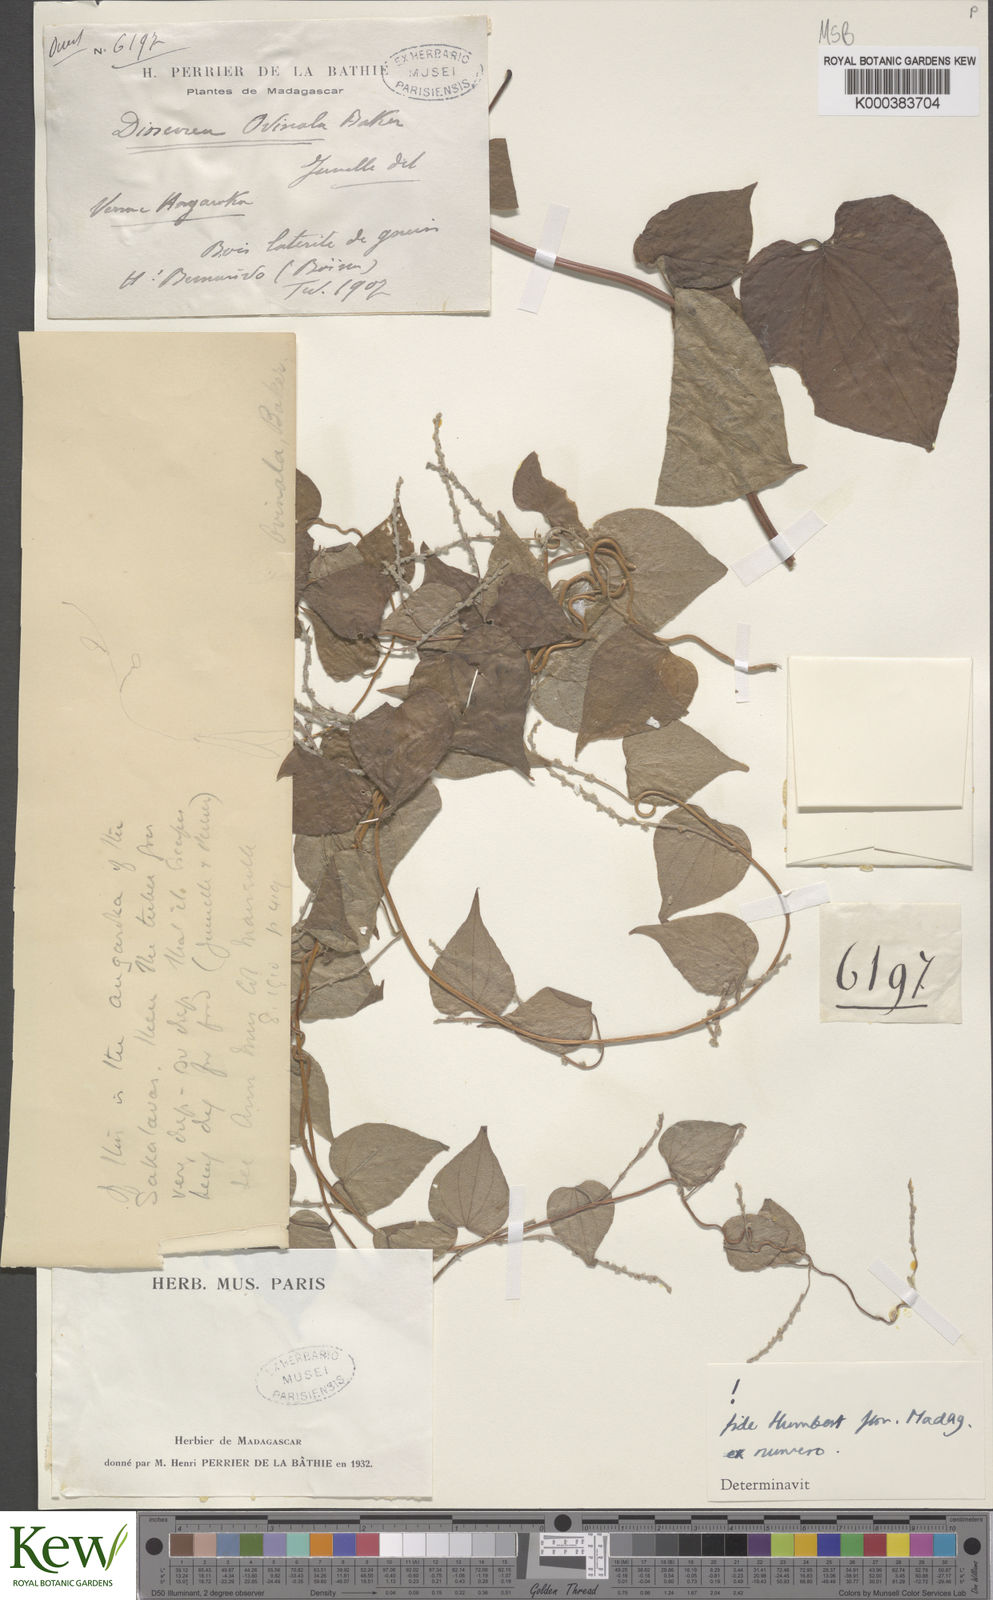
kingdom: Plantae
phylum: Tracheophyta
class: Liliopsida
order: Dioscoreales
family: Dioscoreaceae
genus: Dioscorea
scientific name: Dioscorea ovinala
